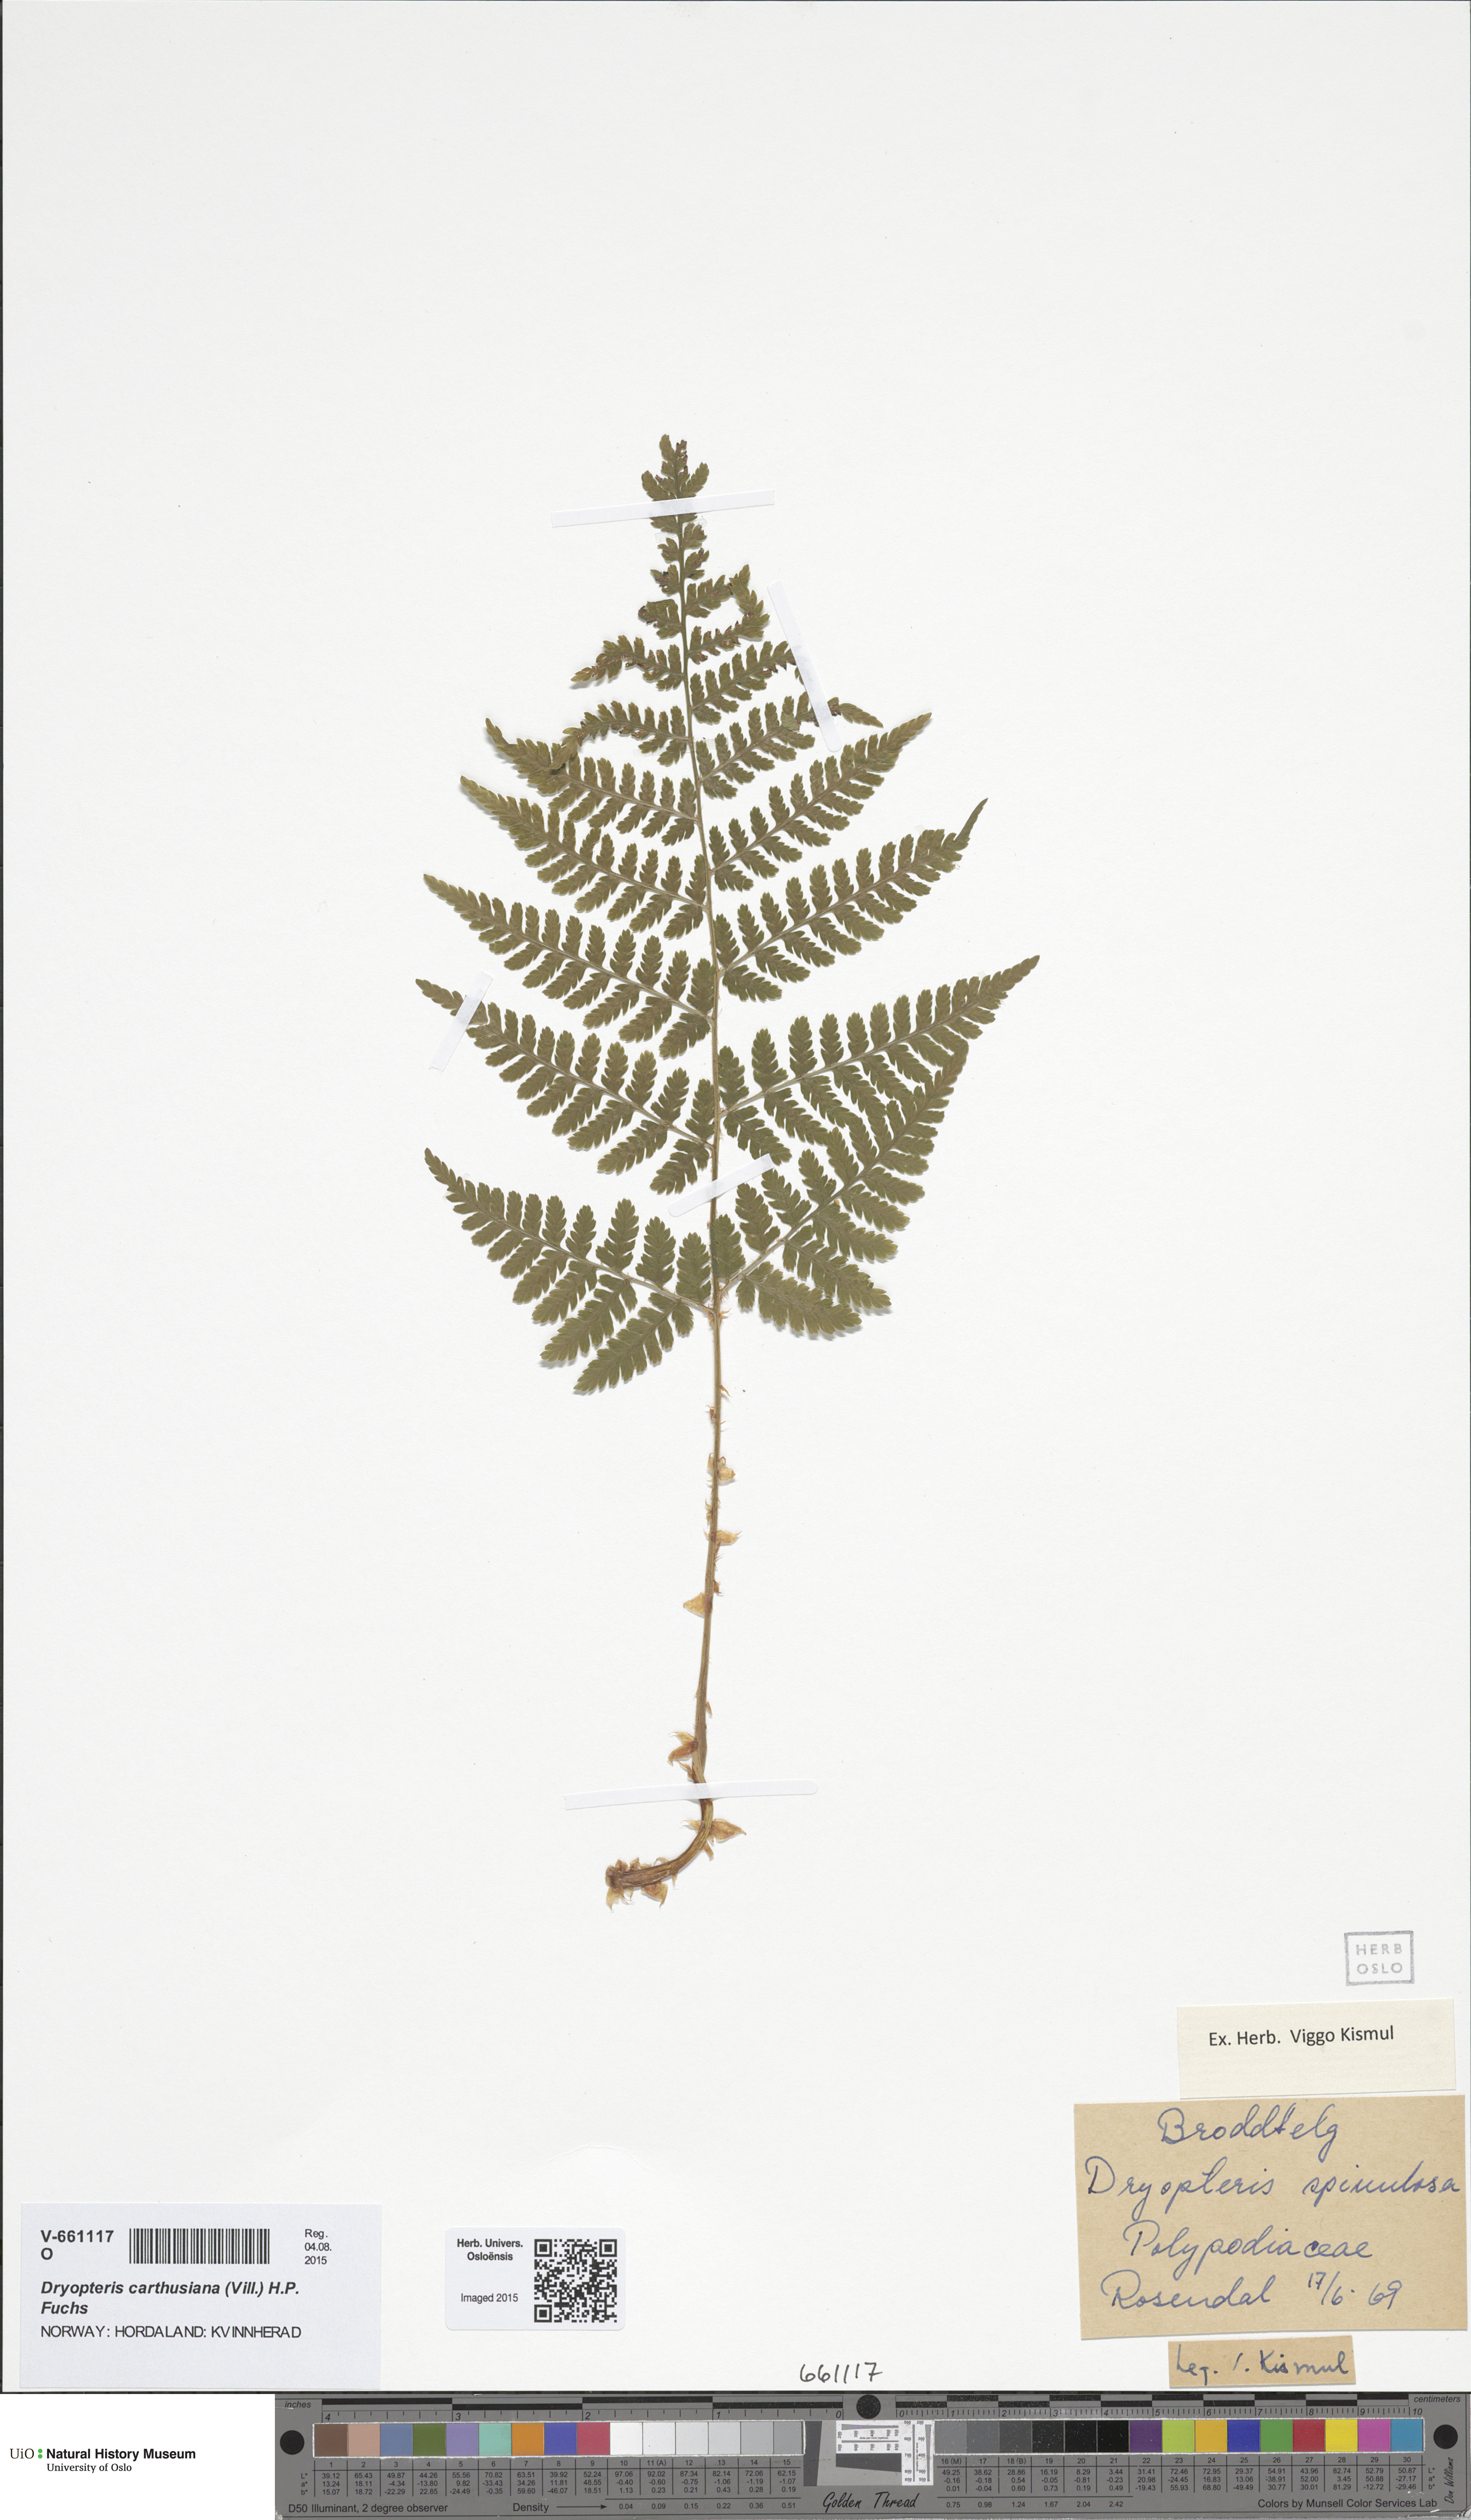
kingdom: Plantae
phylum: Tracheophyta
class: Polypodiopsida
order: Polypodiales
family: Dryopteridaceae
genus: Dryopteris
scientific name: Dryopteris carthusiana
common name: Narrow buckler-fern
